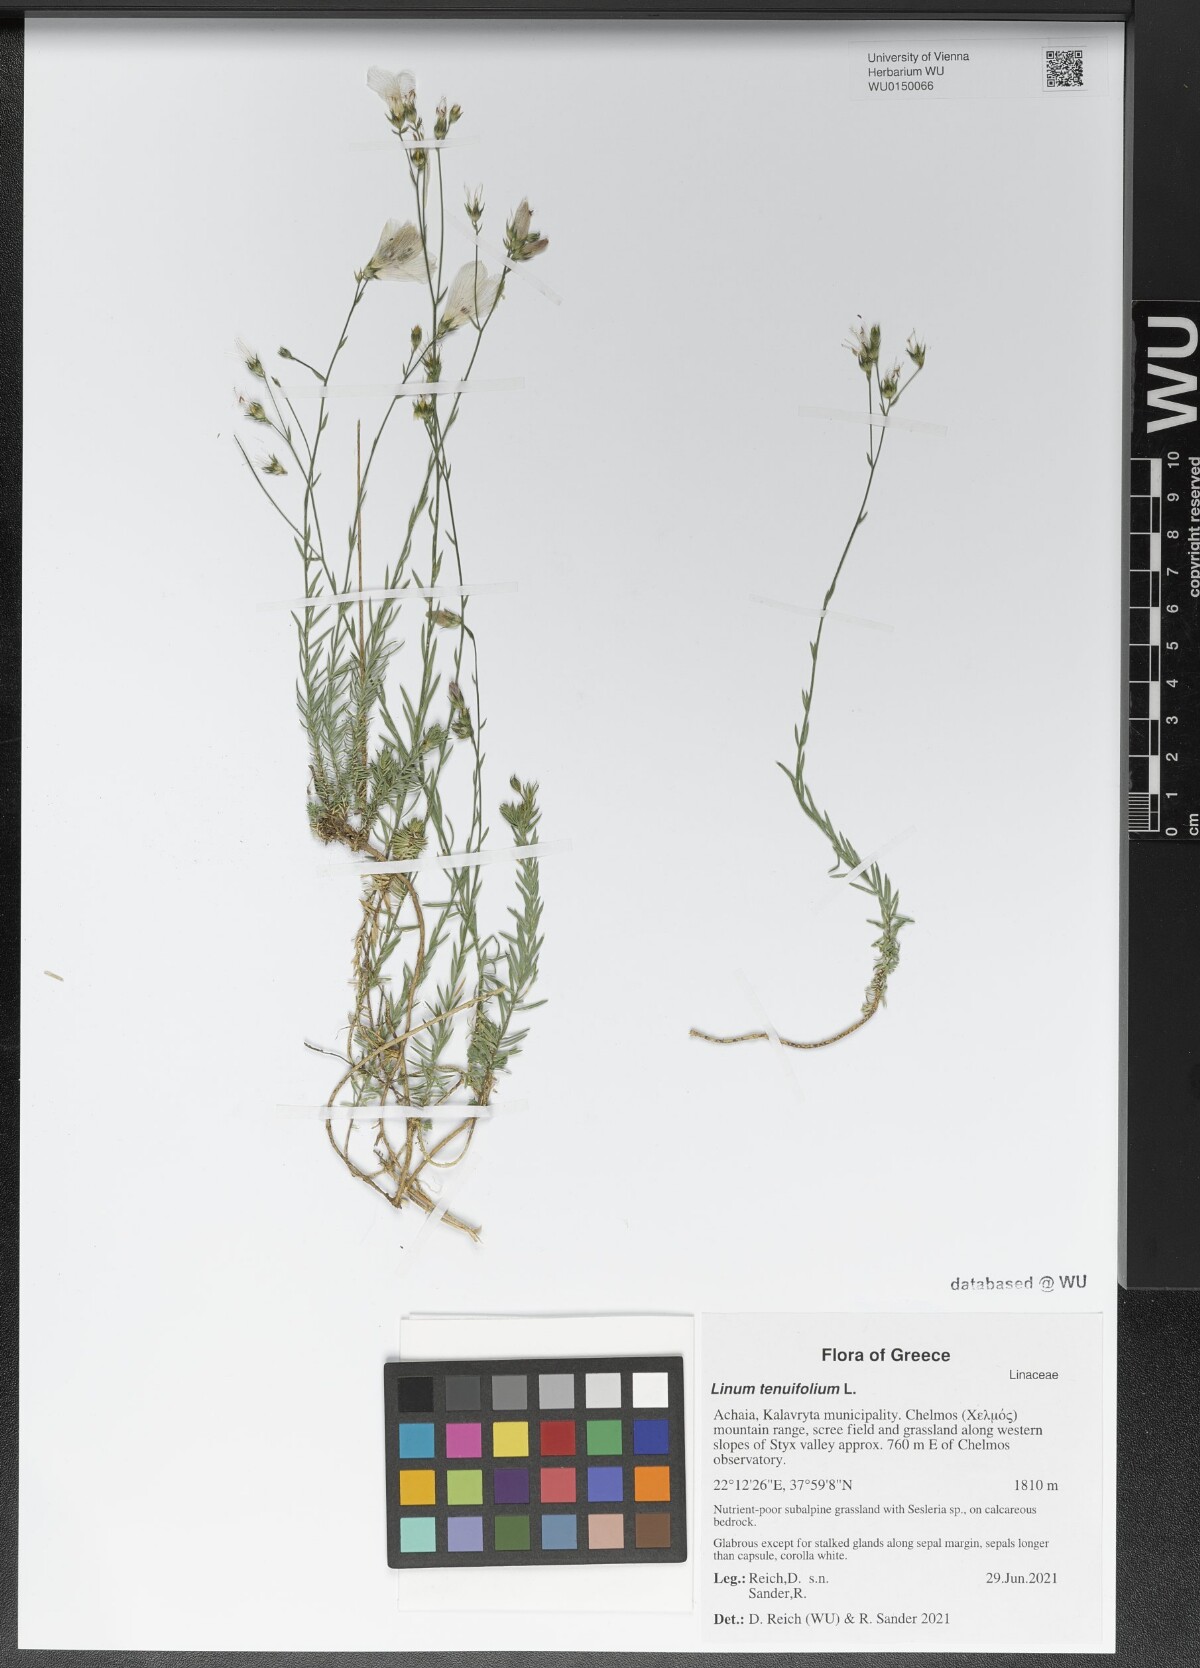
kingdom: Plantae
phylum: Tracheophyta
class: Magnoliopsida
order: Malpighiales
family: Linaceae
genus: Linum
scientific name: Linum tenuifolium
